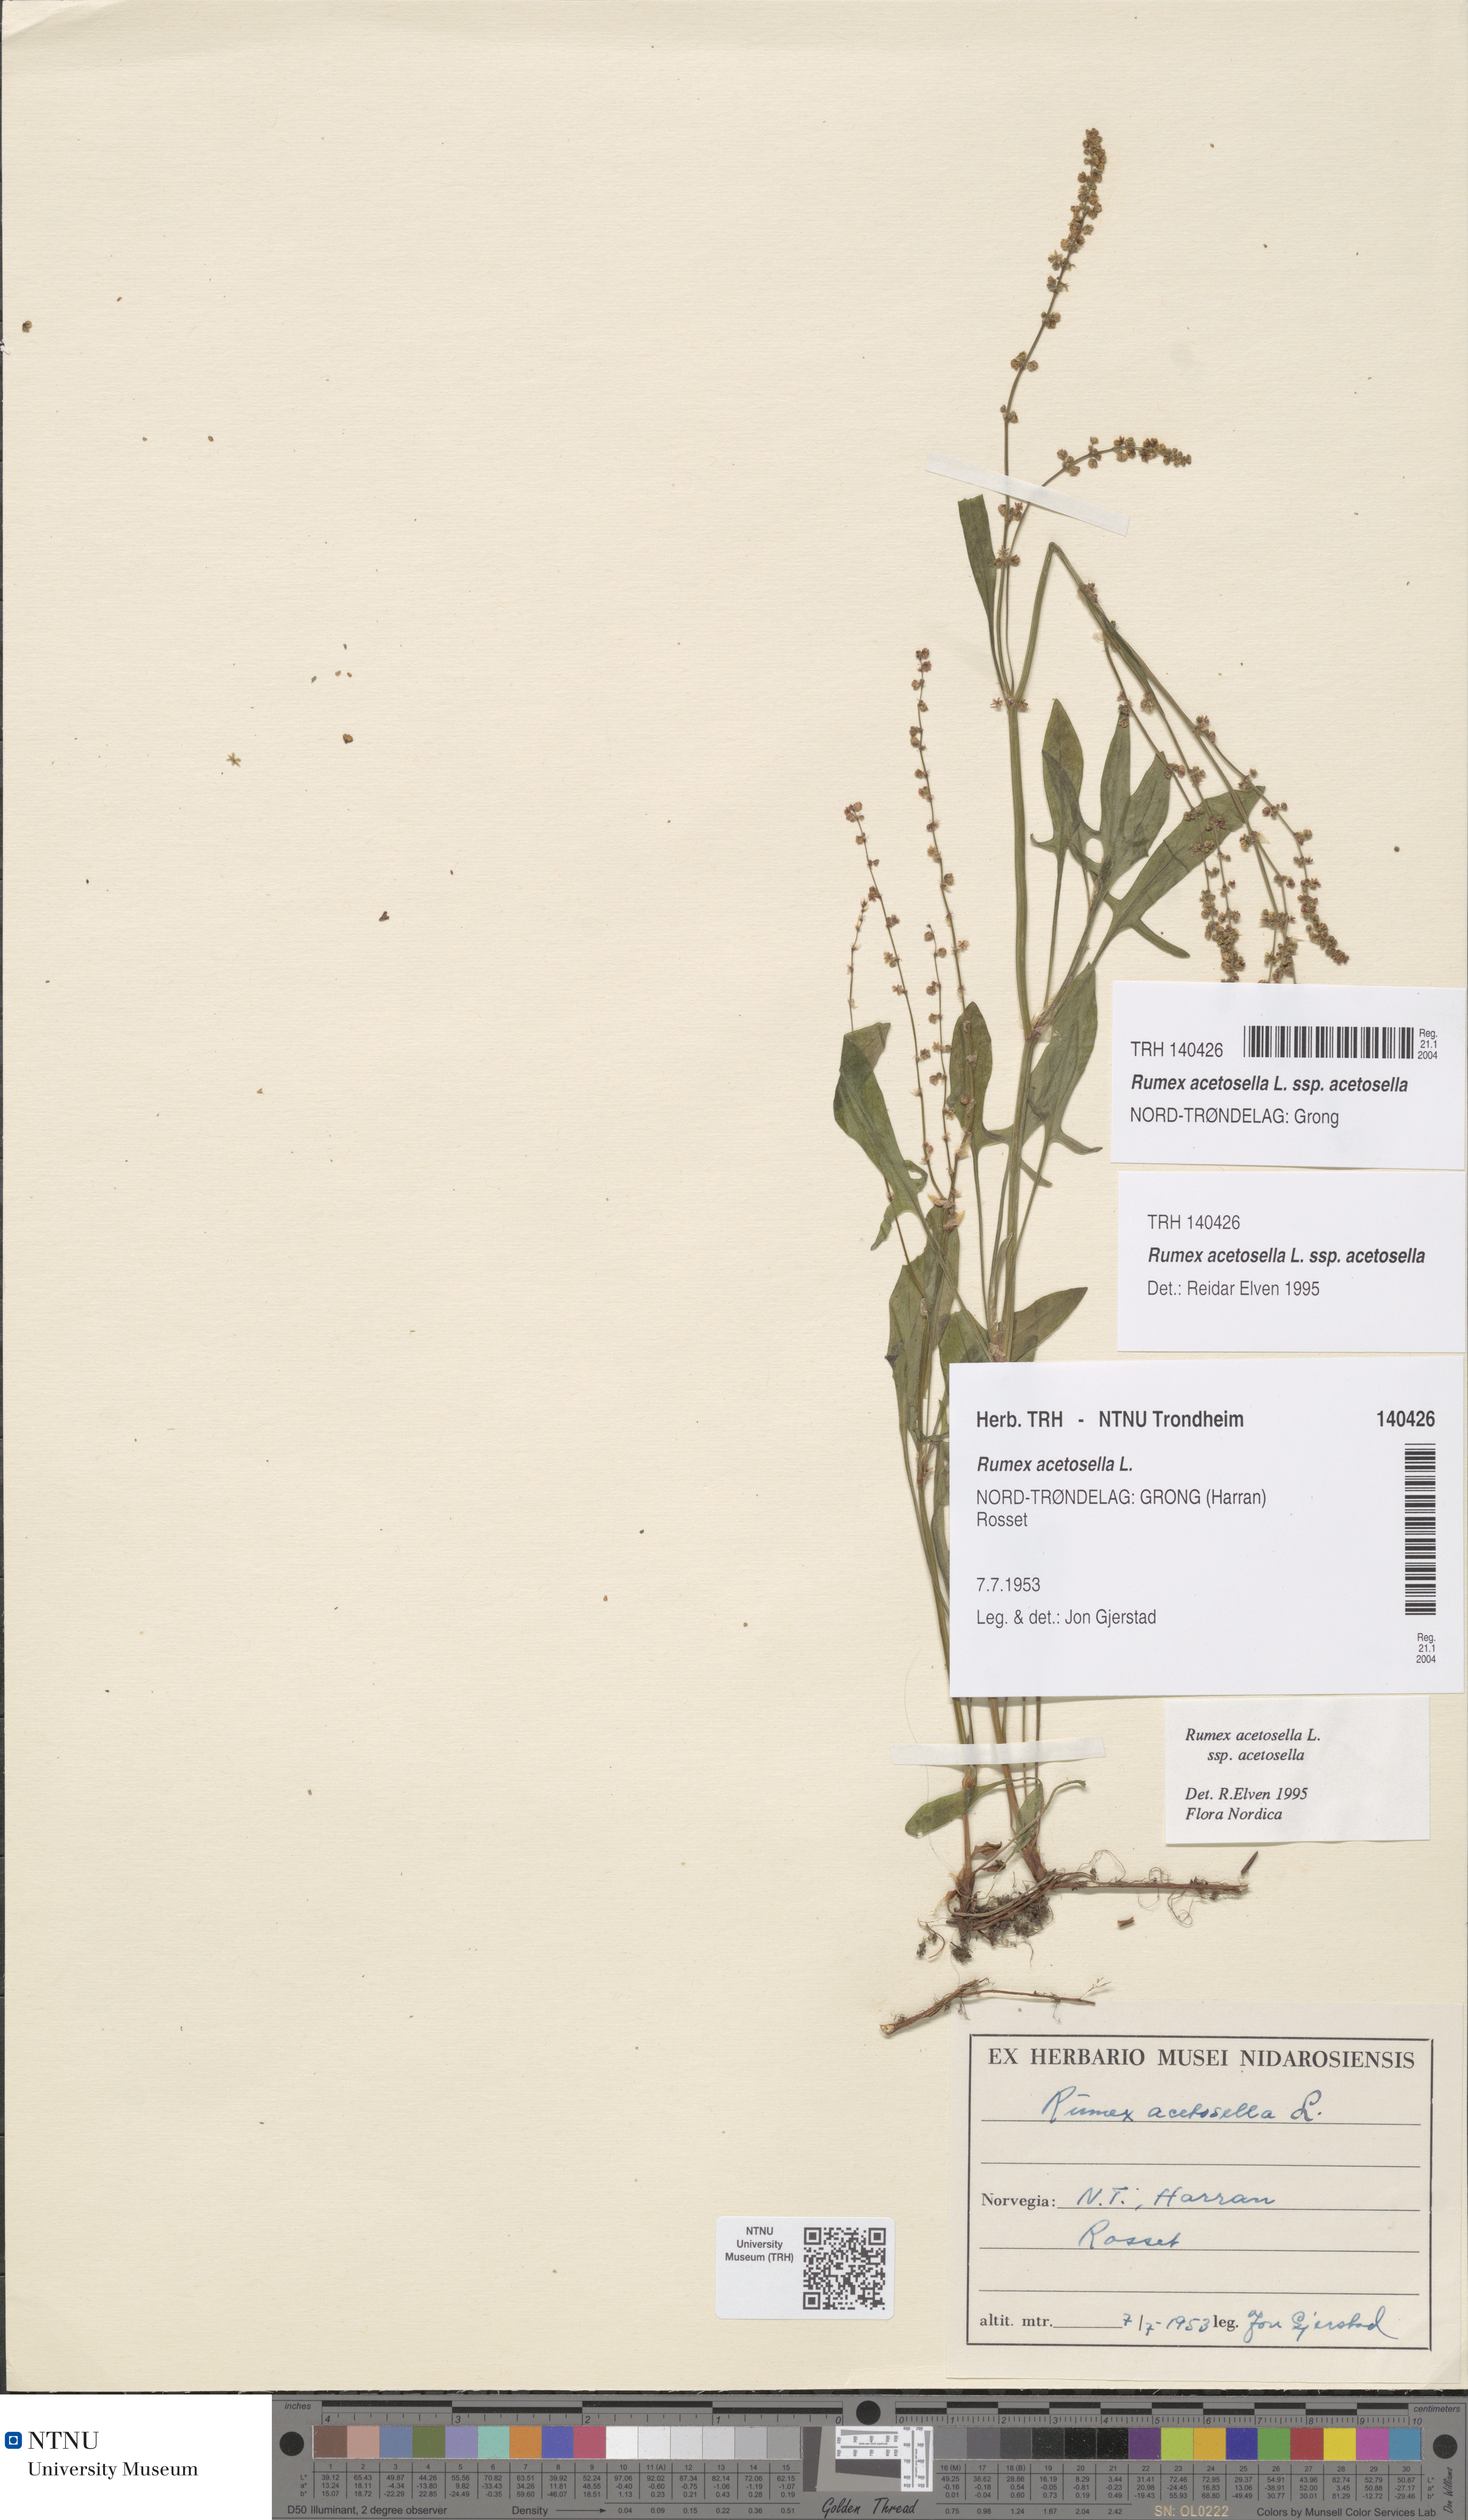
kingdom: Plantae
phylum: Tracheophyta
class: Magnoliopsida
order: Caryophyllales
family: Polygonaceae
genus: Rumex
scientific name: Rumex acetosella
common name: Common sheep sorrel
